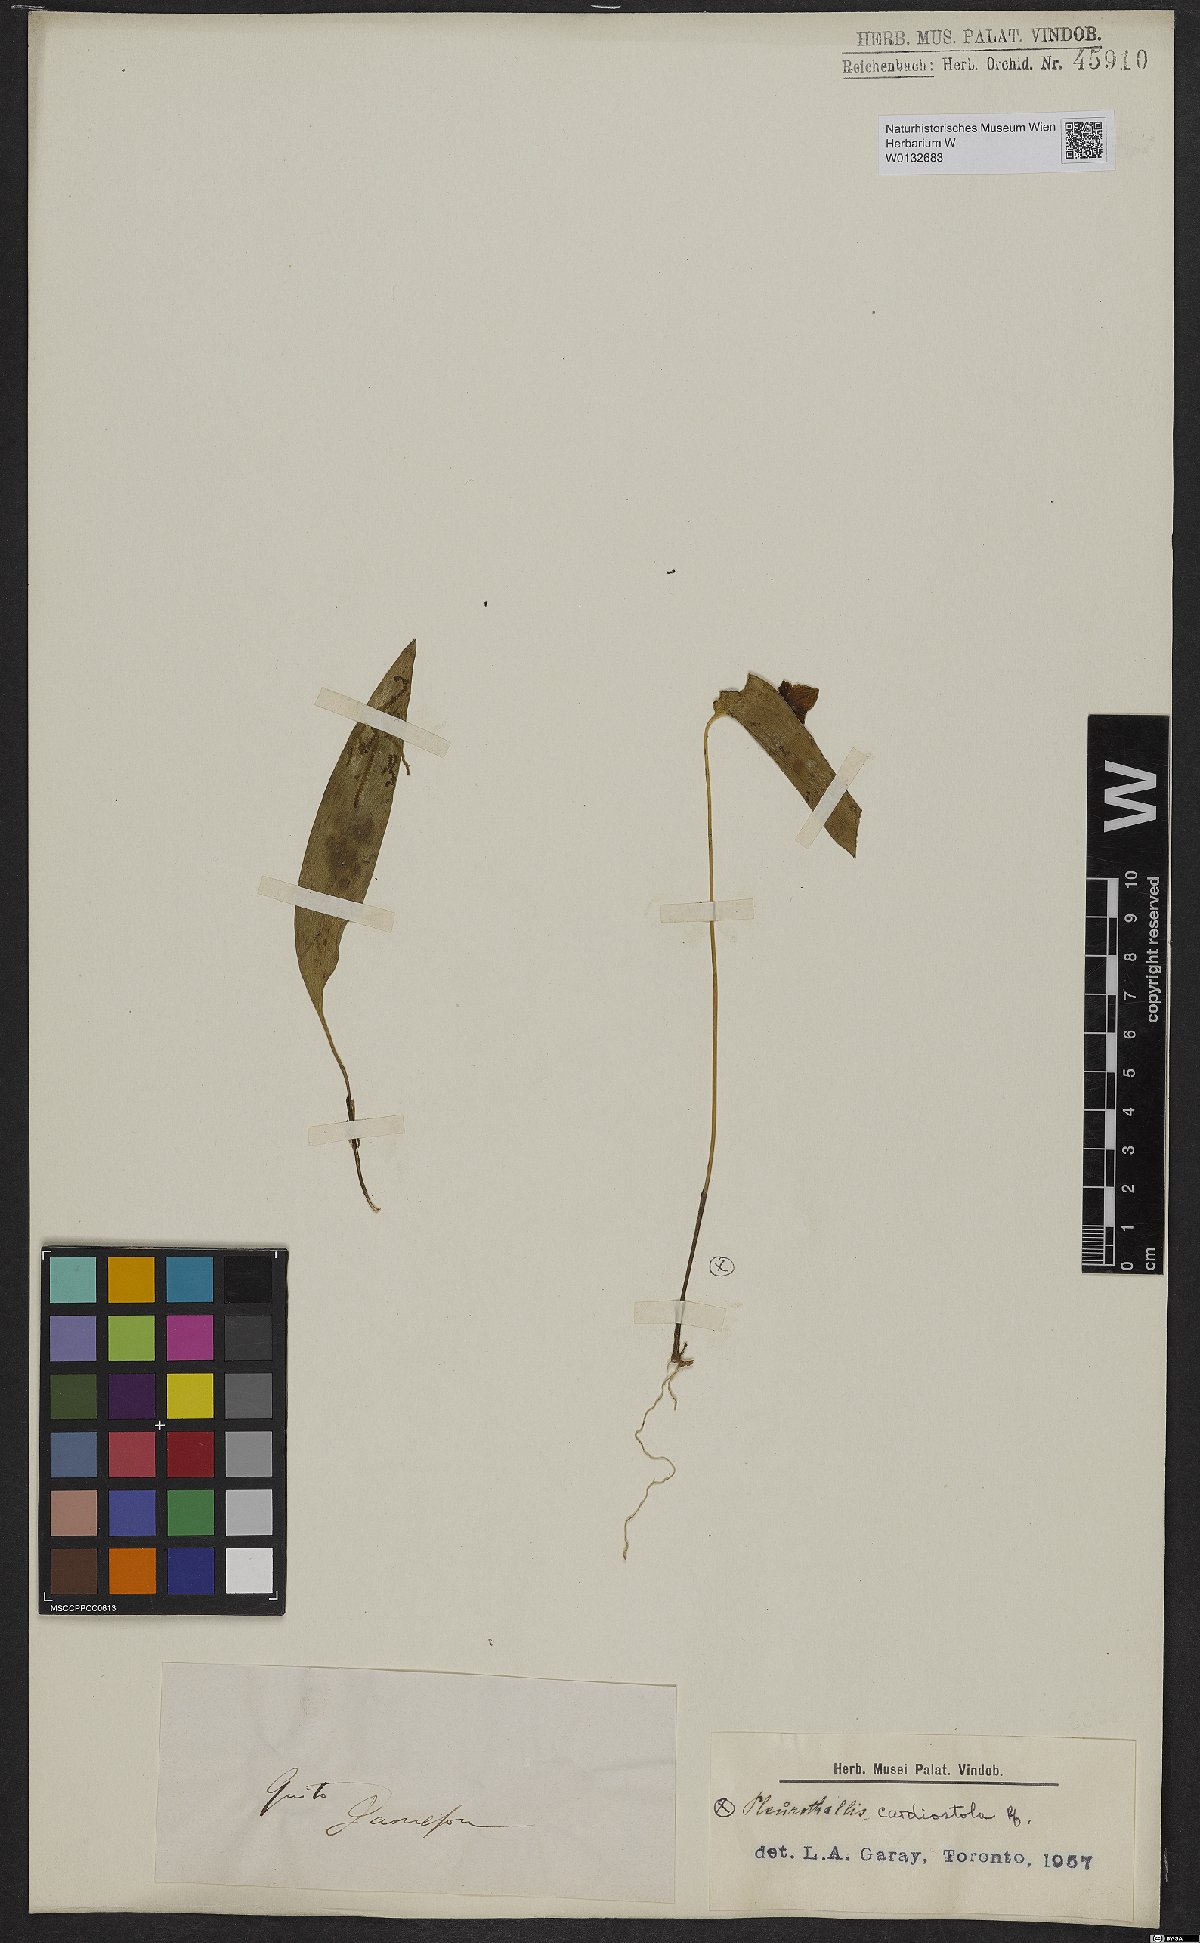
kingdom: Plantae
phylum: Tracheophyta
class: Liliopsida
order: Asparagales
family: Orchidaceae
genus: Pleurothallis
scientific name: Pleurothallis cardiostola
